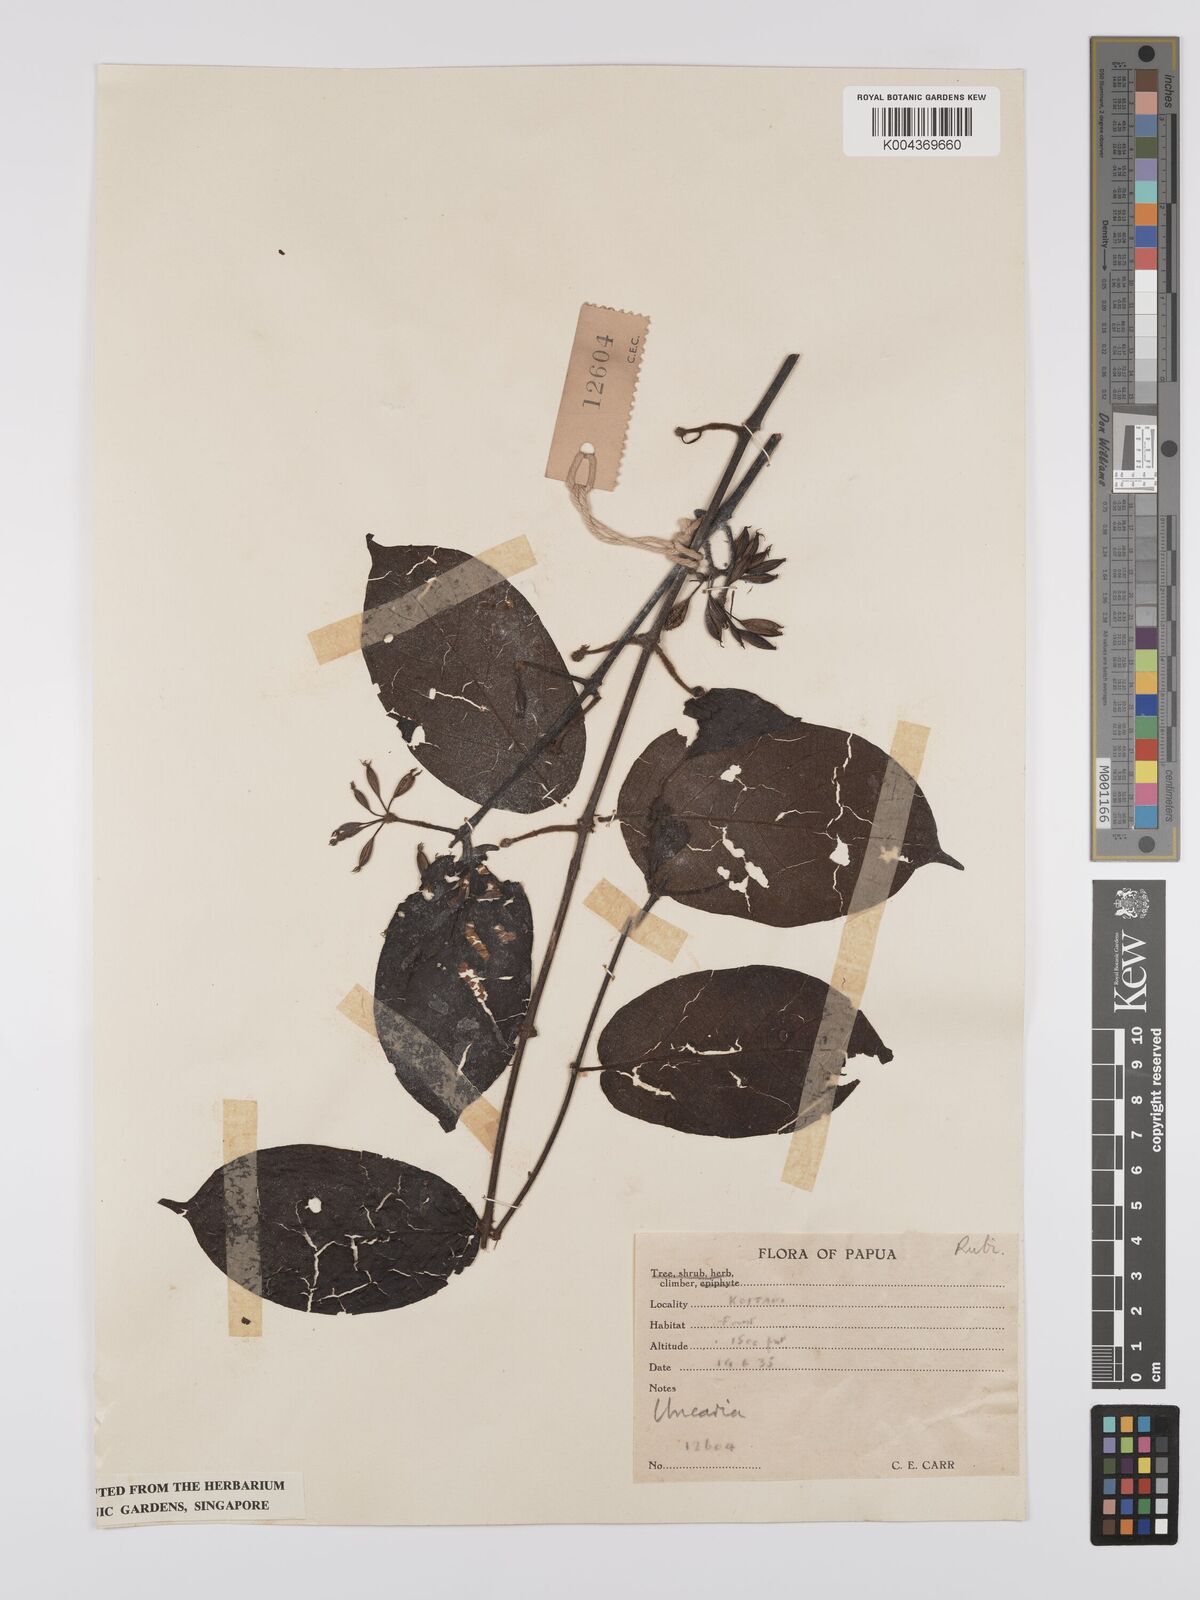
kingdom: Plantae
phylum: Tracheophyta
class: Magnoliopsida
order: Gentianales
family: Rubiaceae
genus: Uncaria
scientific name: Uncaria lanosa
